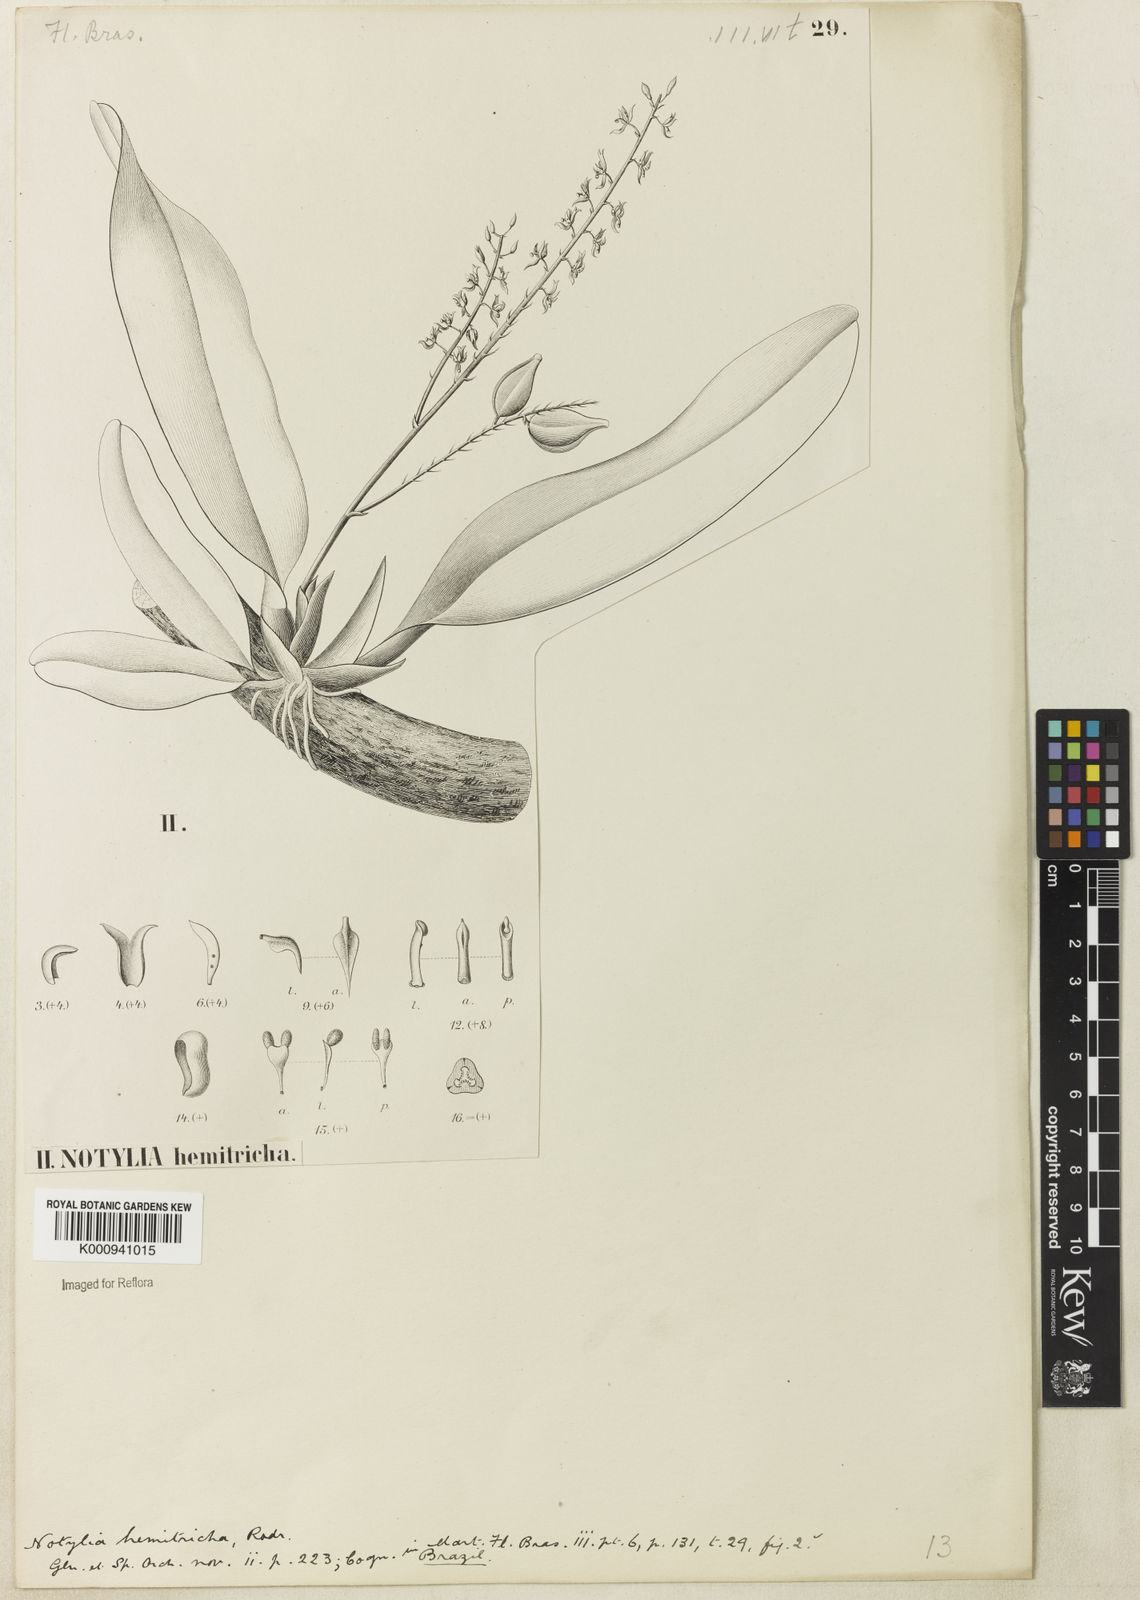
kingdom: Plantae
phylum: Tracheophyta
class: Liliopsida
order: Asparagales
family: Orchidaceae
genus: Notylia
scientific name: Notylia hemitricha
